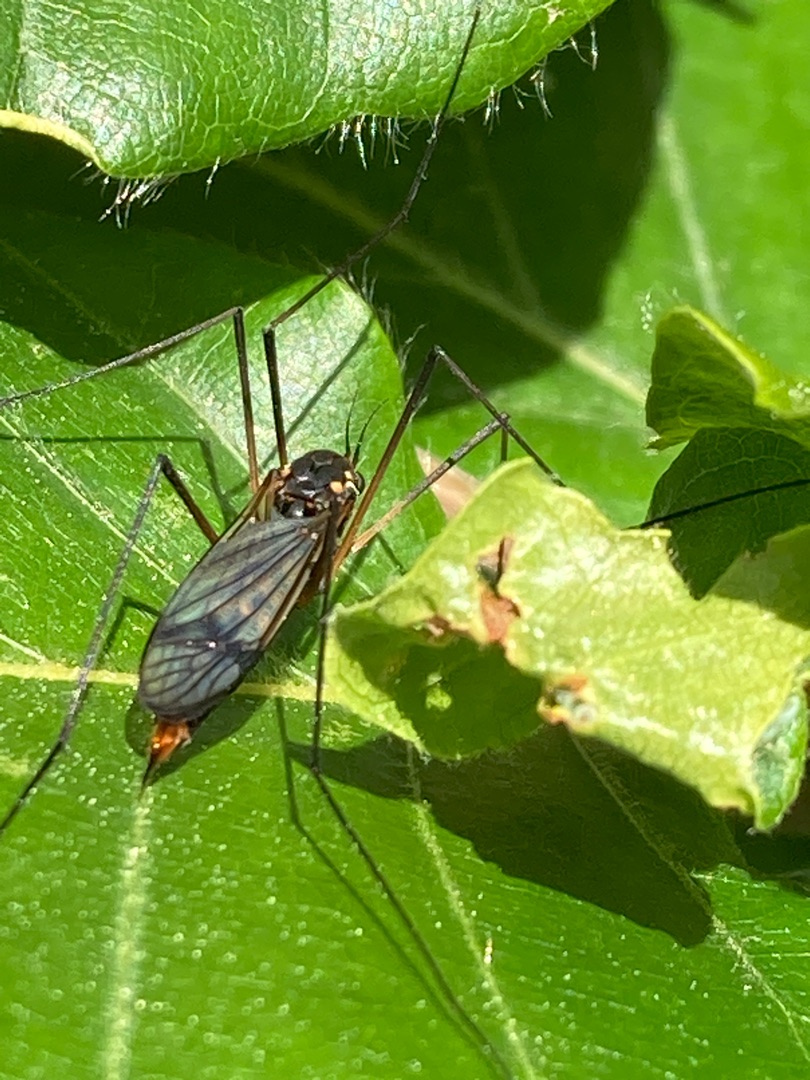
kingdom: Animalia
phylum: Arthropoda
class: Insecta
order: Diptera
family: Tipulidae
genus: Nephrotoma
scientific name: Nephrotoma crocata
